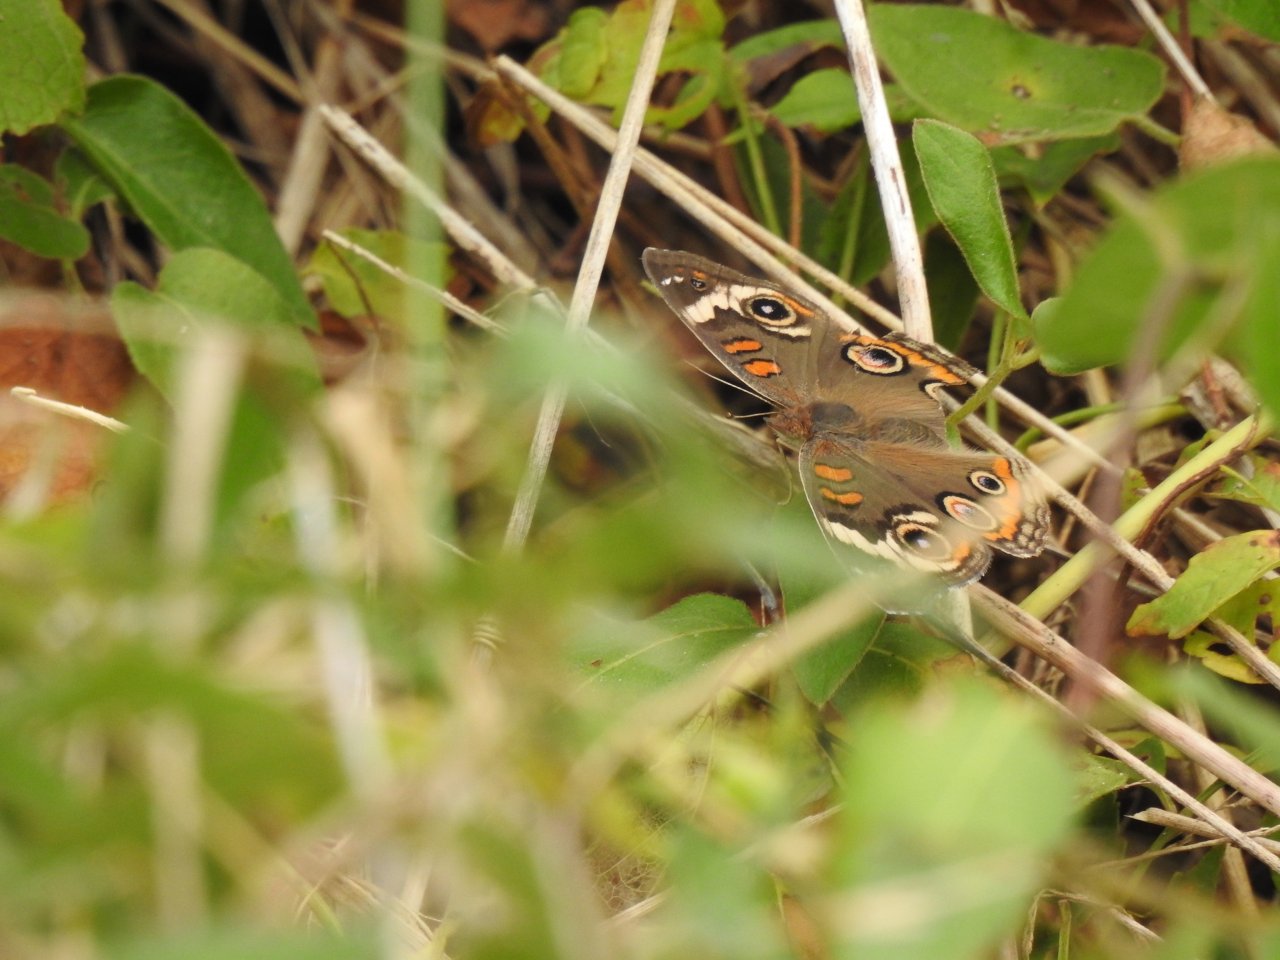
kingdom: Animalia
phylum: Arthropoda
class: Insecta
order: Lepidoptera
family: Nymphalidae
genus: Junonia
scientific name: Junonia coenia
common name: Common Buckeye
